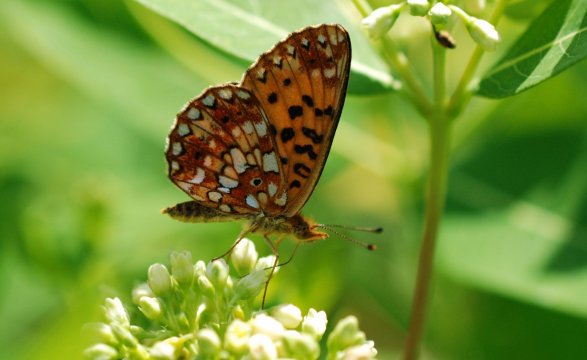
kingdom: Animalia
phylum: Arthropoda
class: Insecta
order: Lepidoptera
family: Nymphalidae
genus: Boloria
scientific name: Boloria selene
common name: Silver-bordered Fritillary
